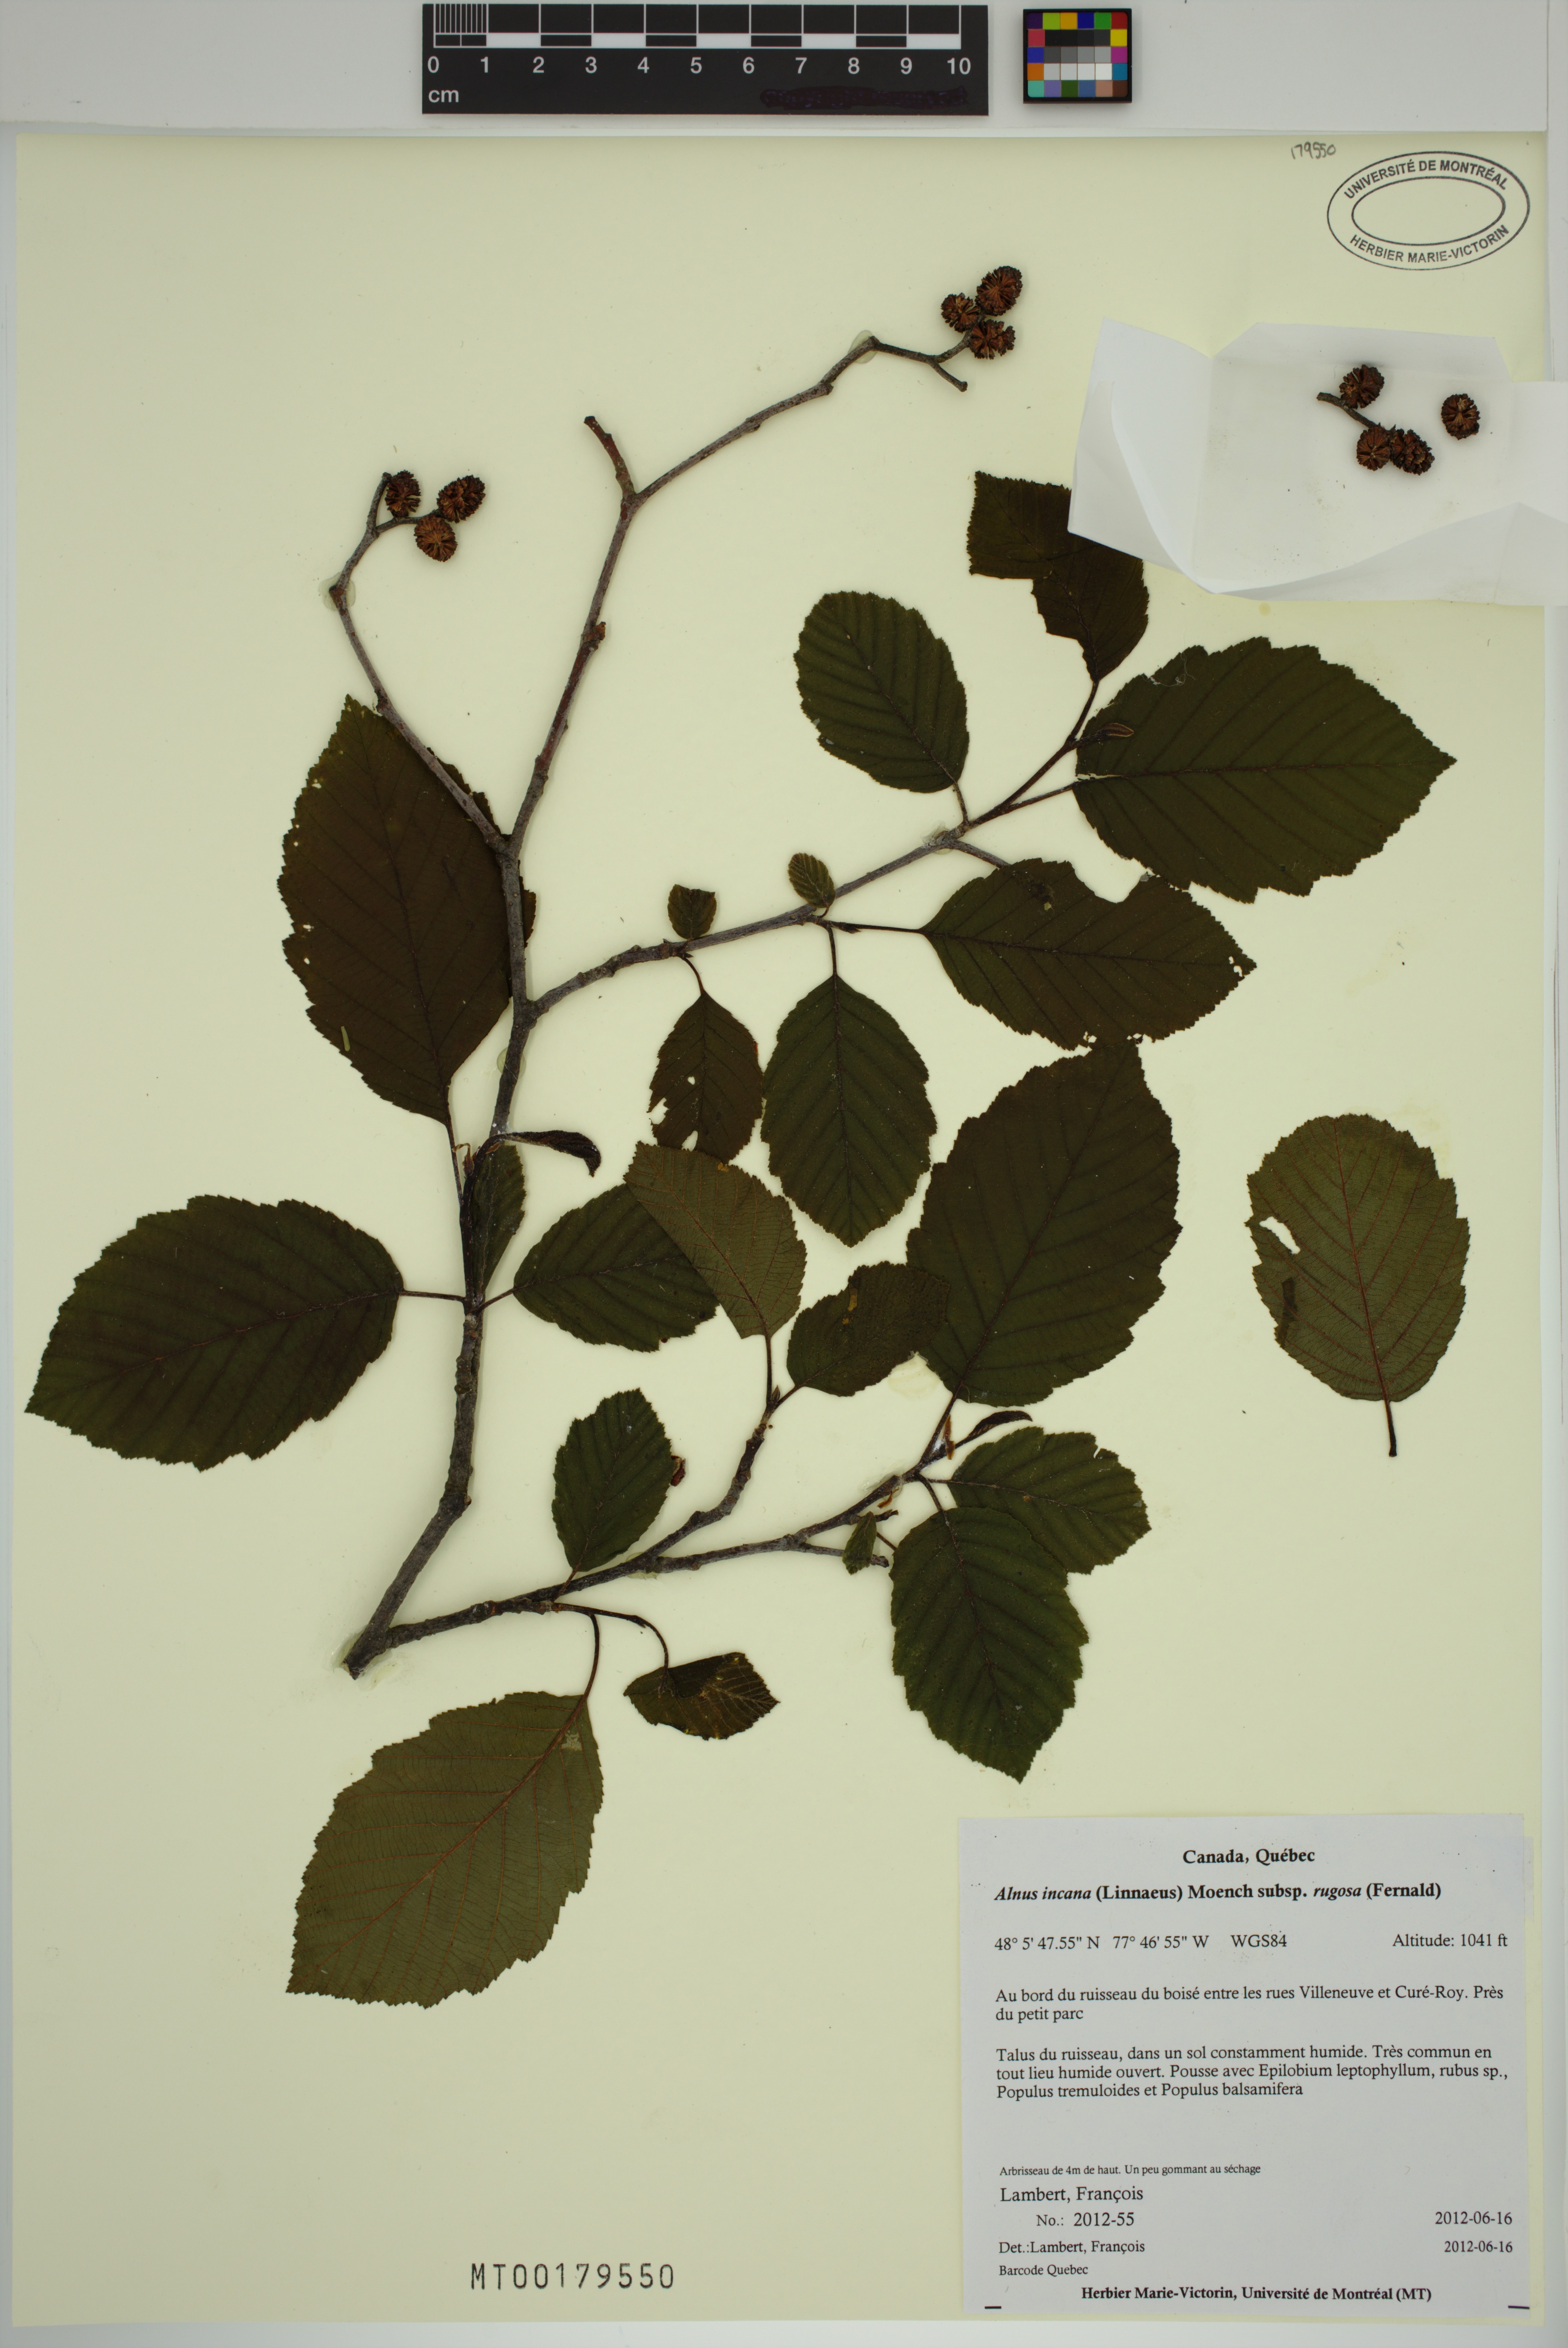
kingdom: Plantae
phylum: Tracheophyta
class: Magnoliopsida
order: Fagales
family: Betulaceae
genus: Alnus
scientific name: Alnus incana
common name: Grey alder
